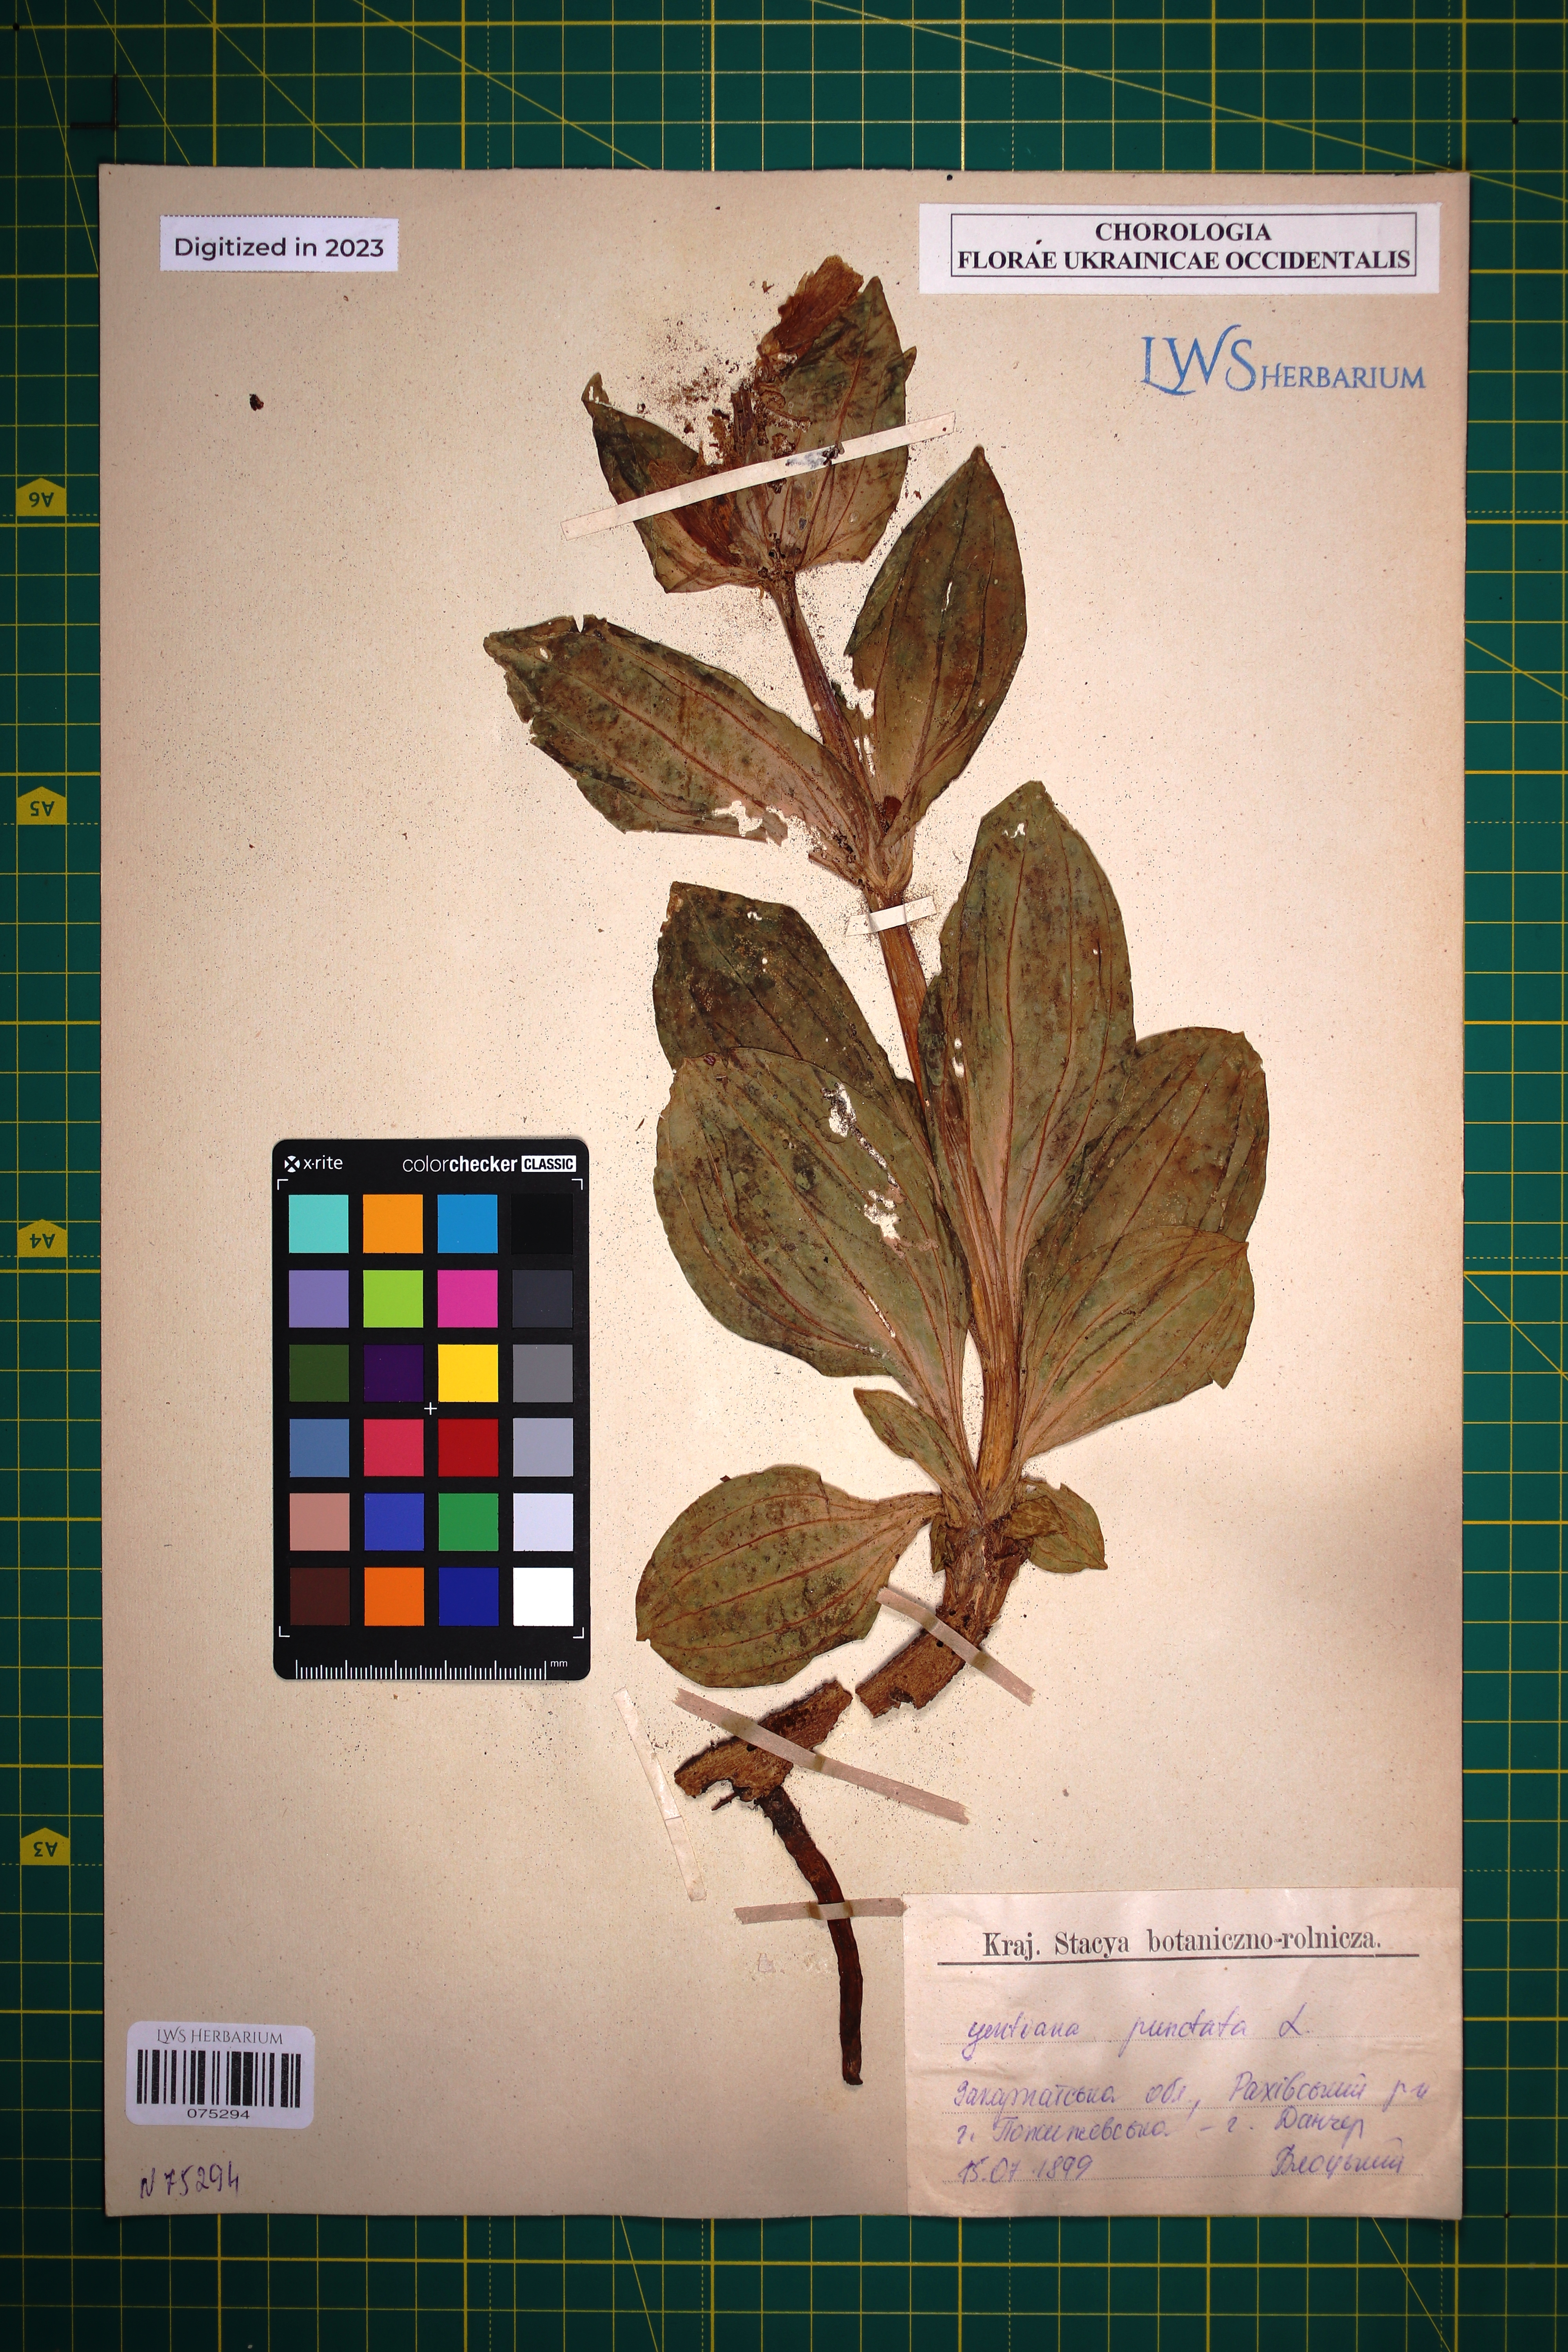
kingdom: Plantae
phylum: Tracheophyta
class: Magnoliopsida
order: Gentianales
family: Gentianaceae
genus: Gentiana
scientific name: Gentiana punctata
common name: Spotted gentian
